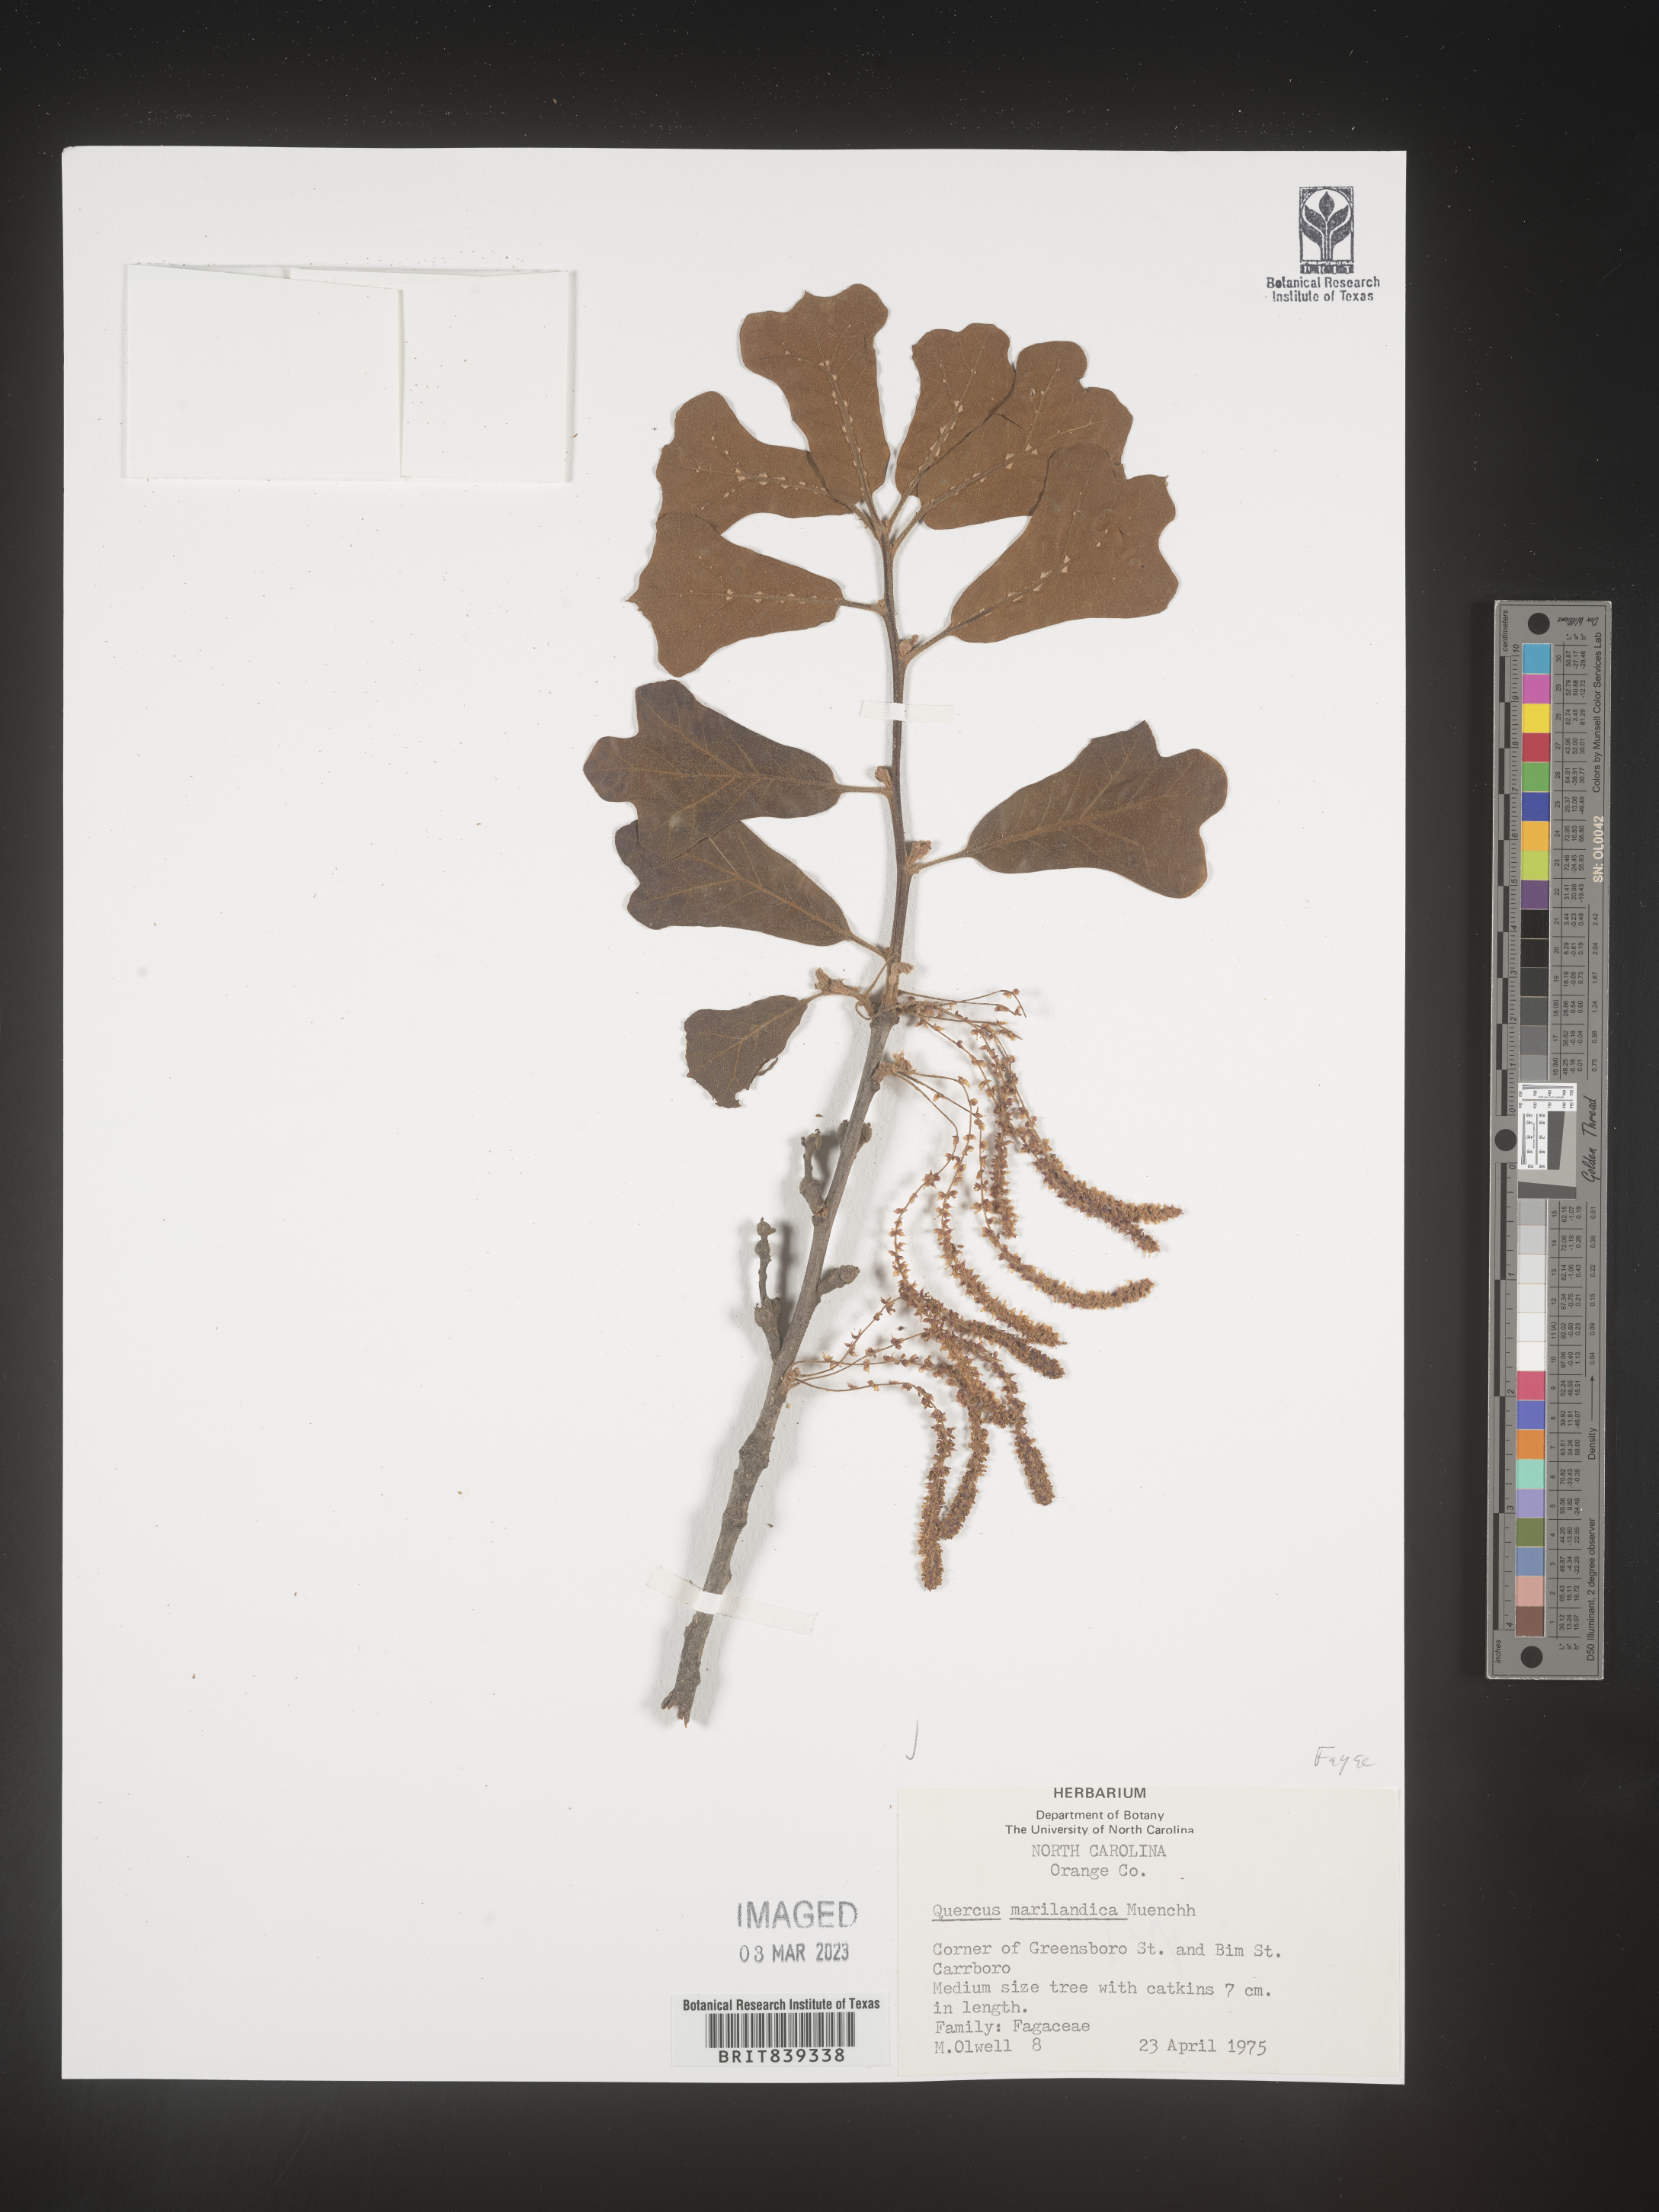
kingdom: Plantae
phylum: Tracheophyta
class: Magnoliopsida
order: Fagales
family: Fagaceae
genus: Quercus
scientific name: Quercus marilandica
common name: Blackjack oak
